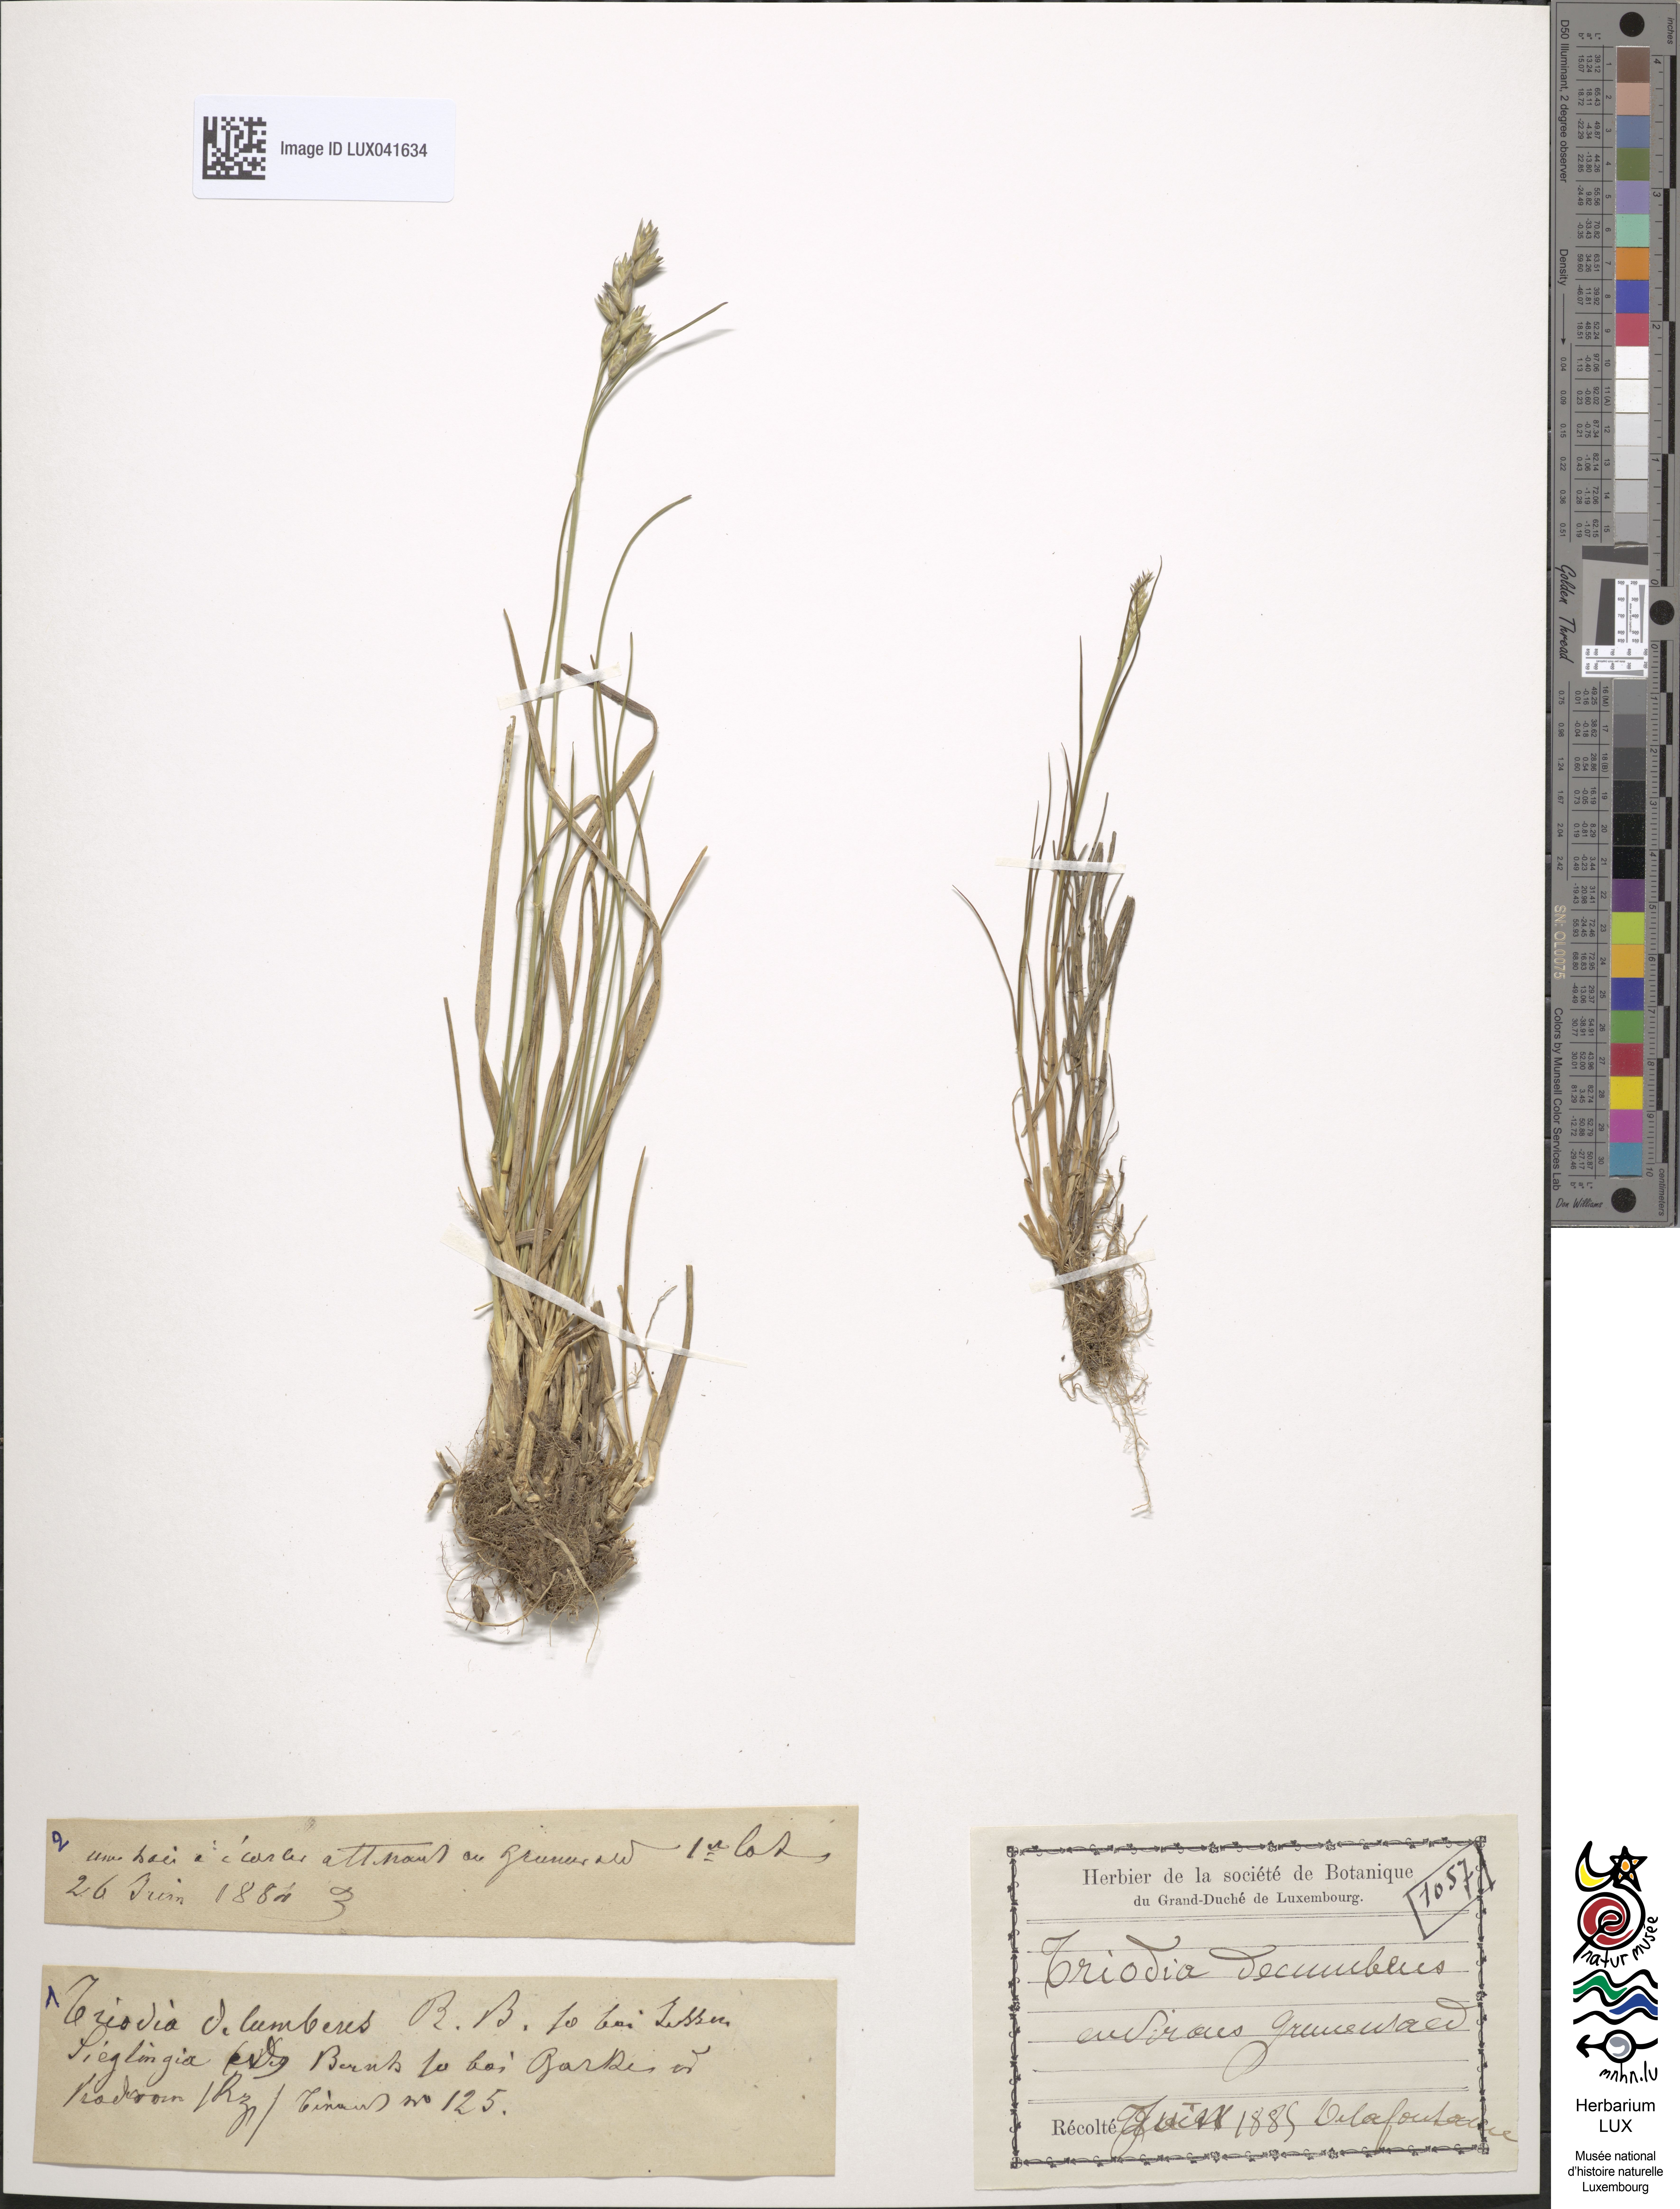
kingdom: Plantae
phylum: Tracheophyta
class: Liliopsida
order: Poales
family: Poaceae
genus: Danthonia
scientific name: Danthonia decumbens
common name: Common heathgrass
